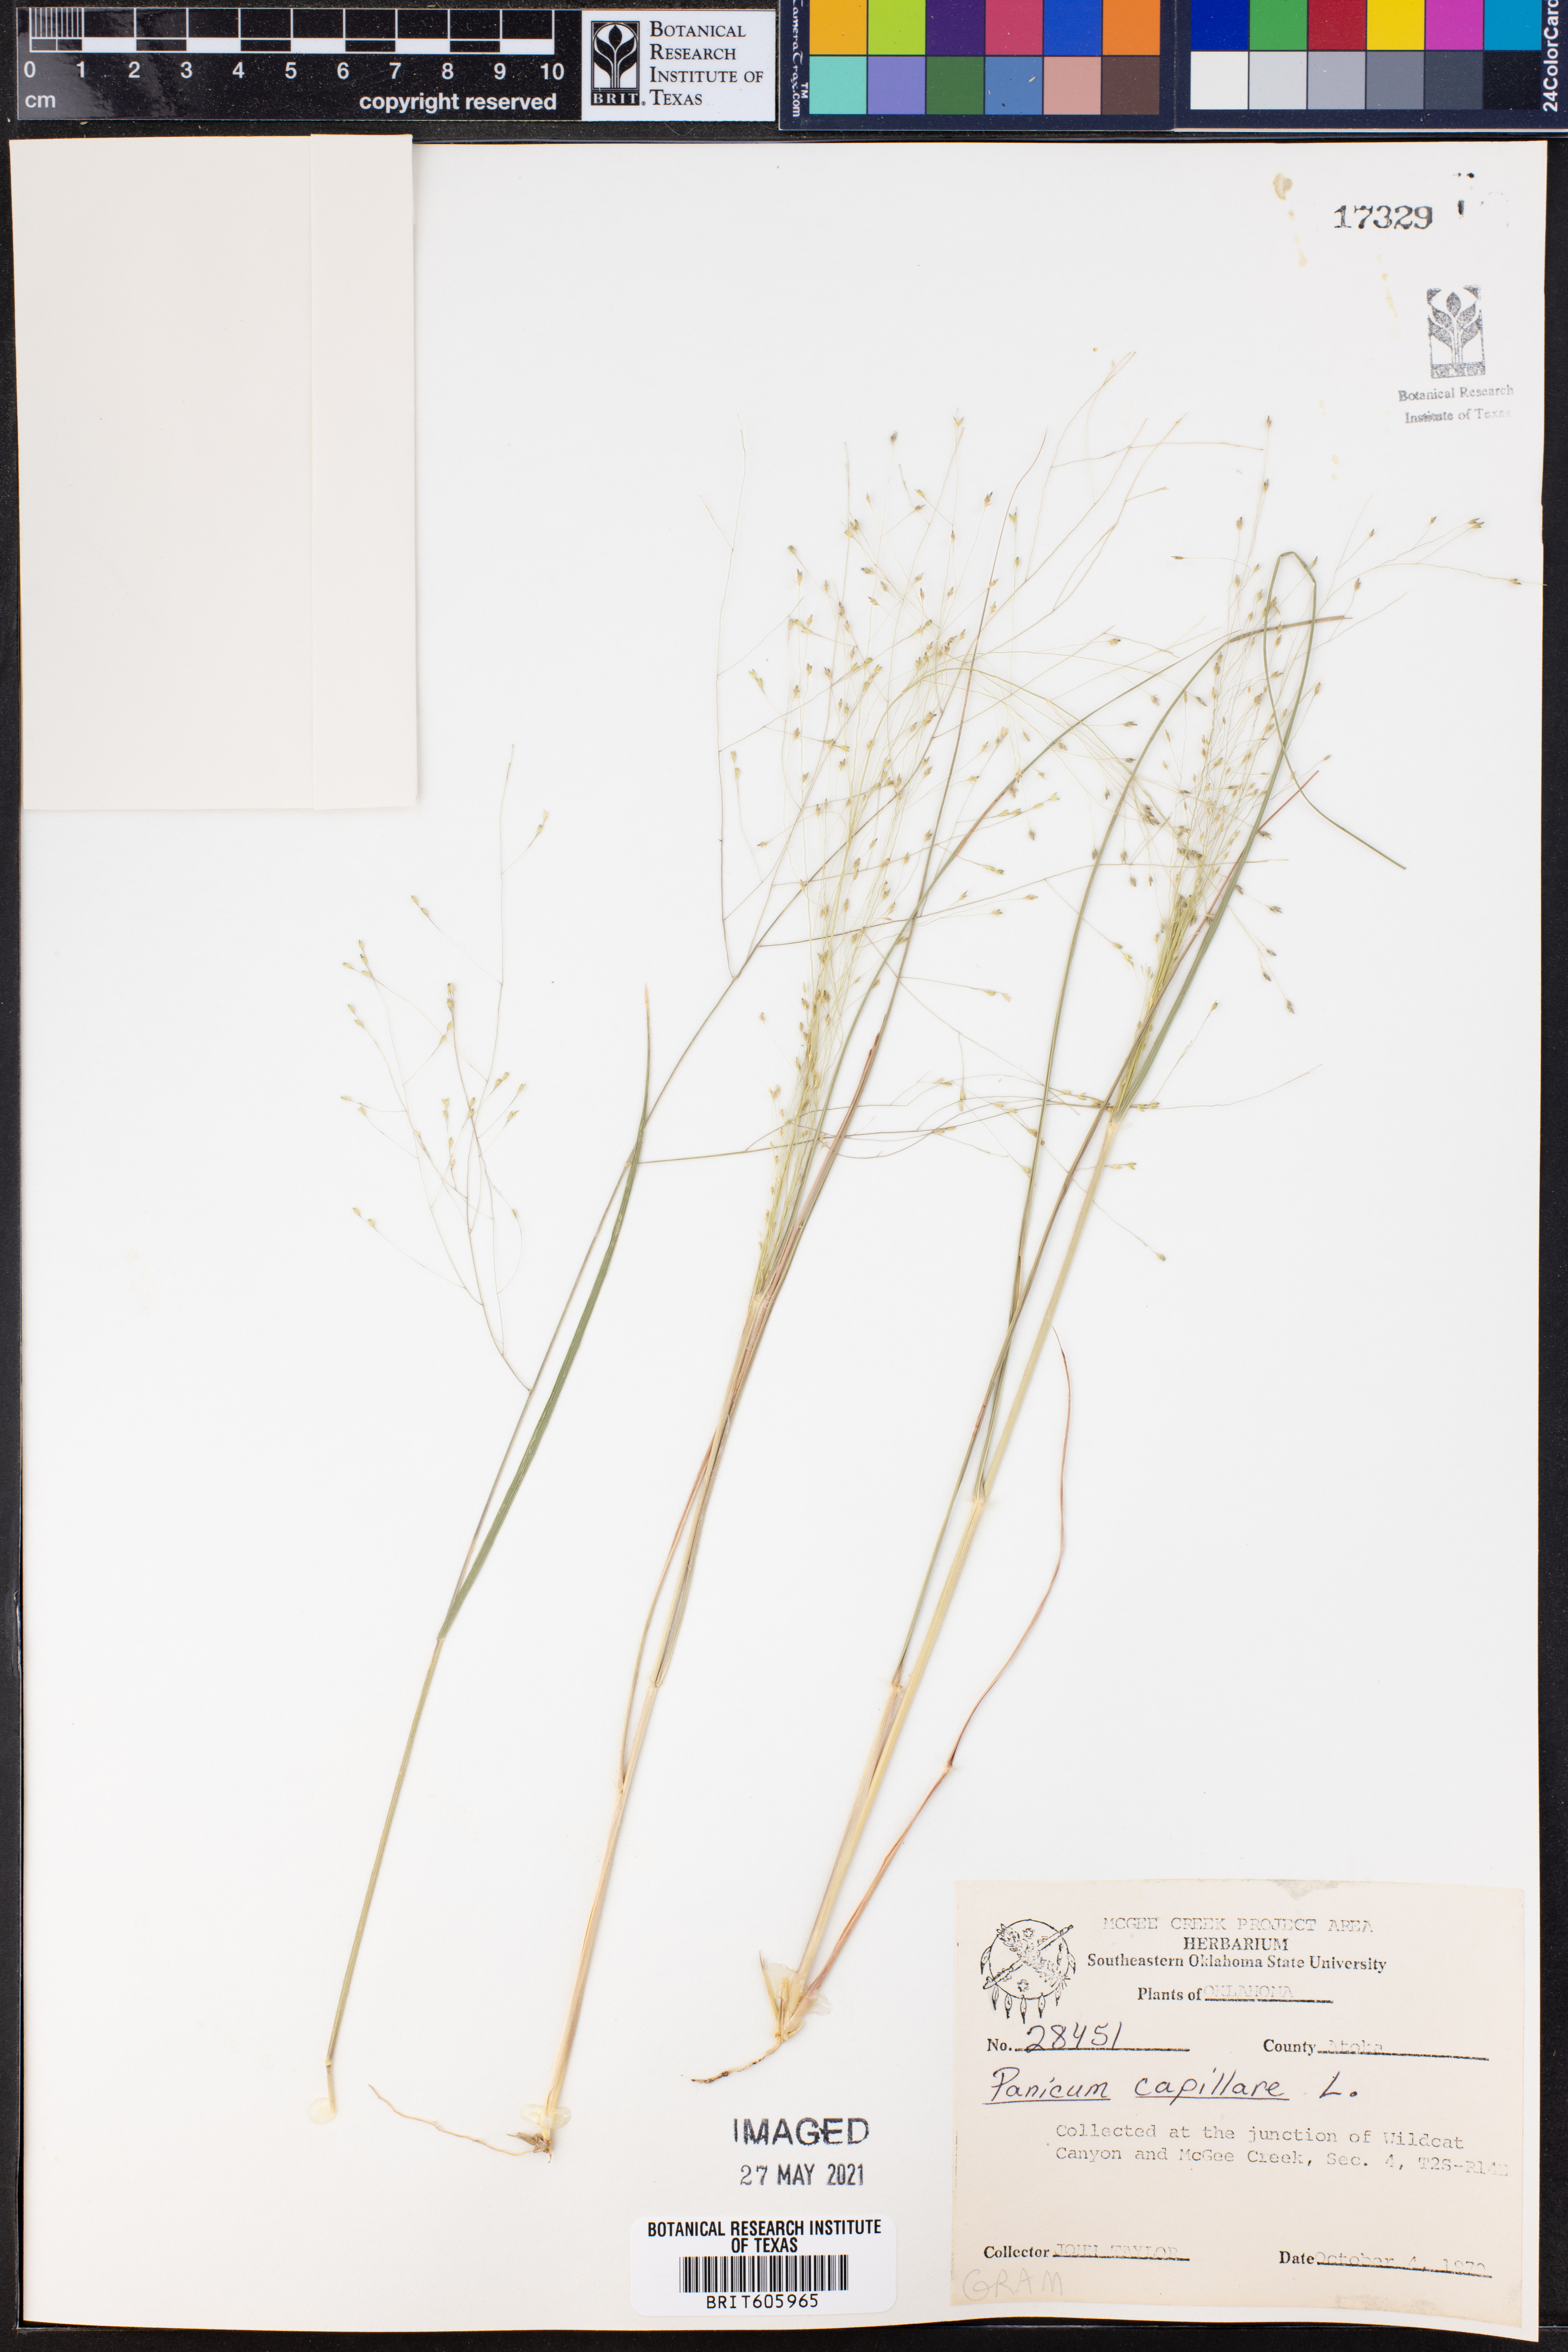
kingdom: Plantae
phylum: Tracheophyta
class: Liliopsida
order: Poales
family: Poaceae
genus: Panicum
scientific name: Panicum capillare
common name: Witch-grass
